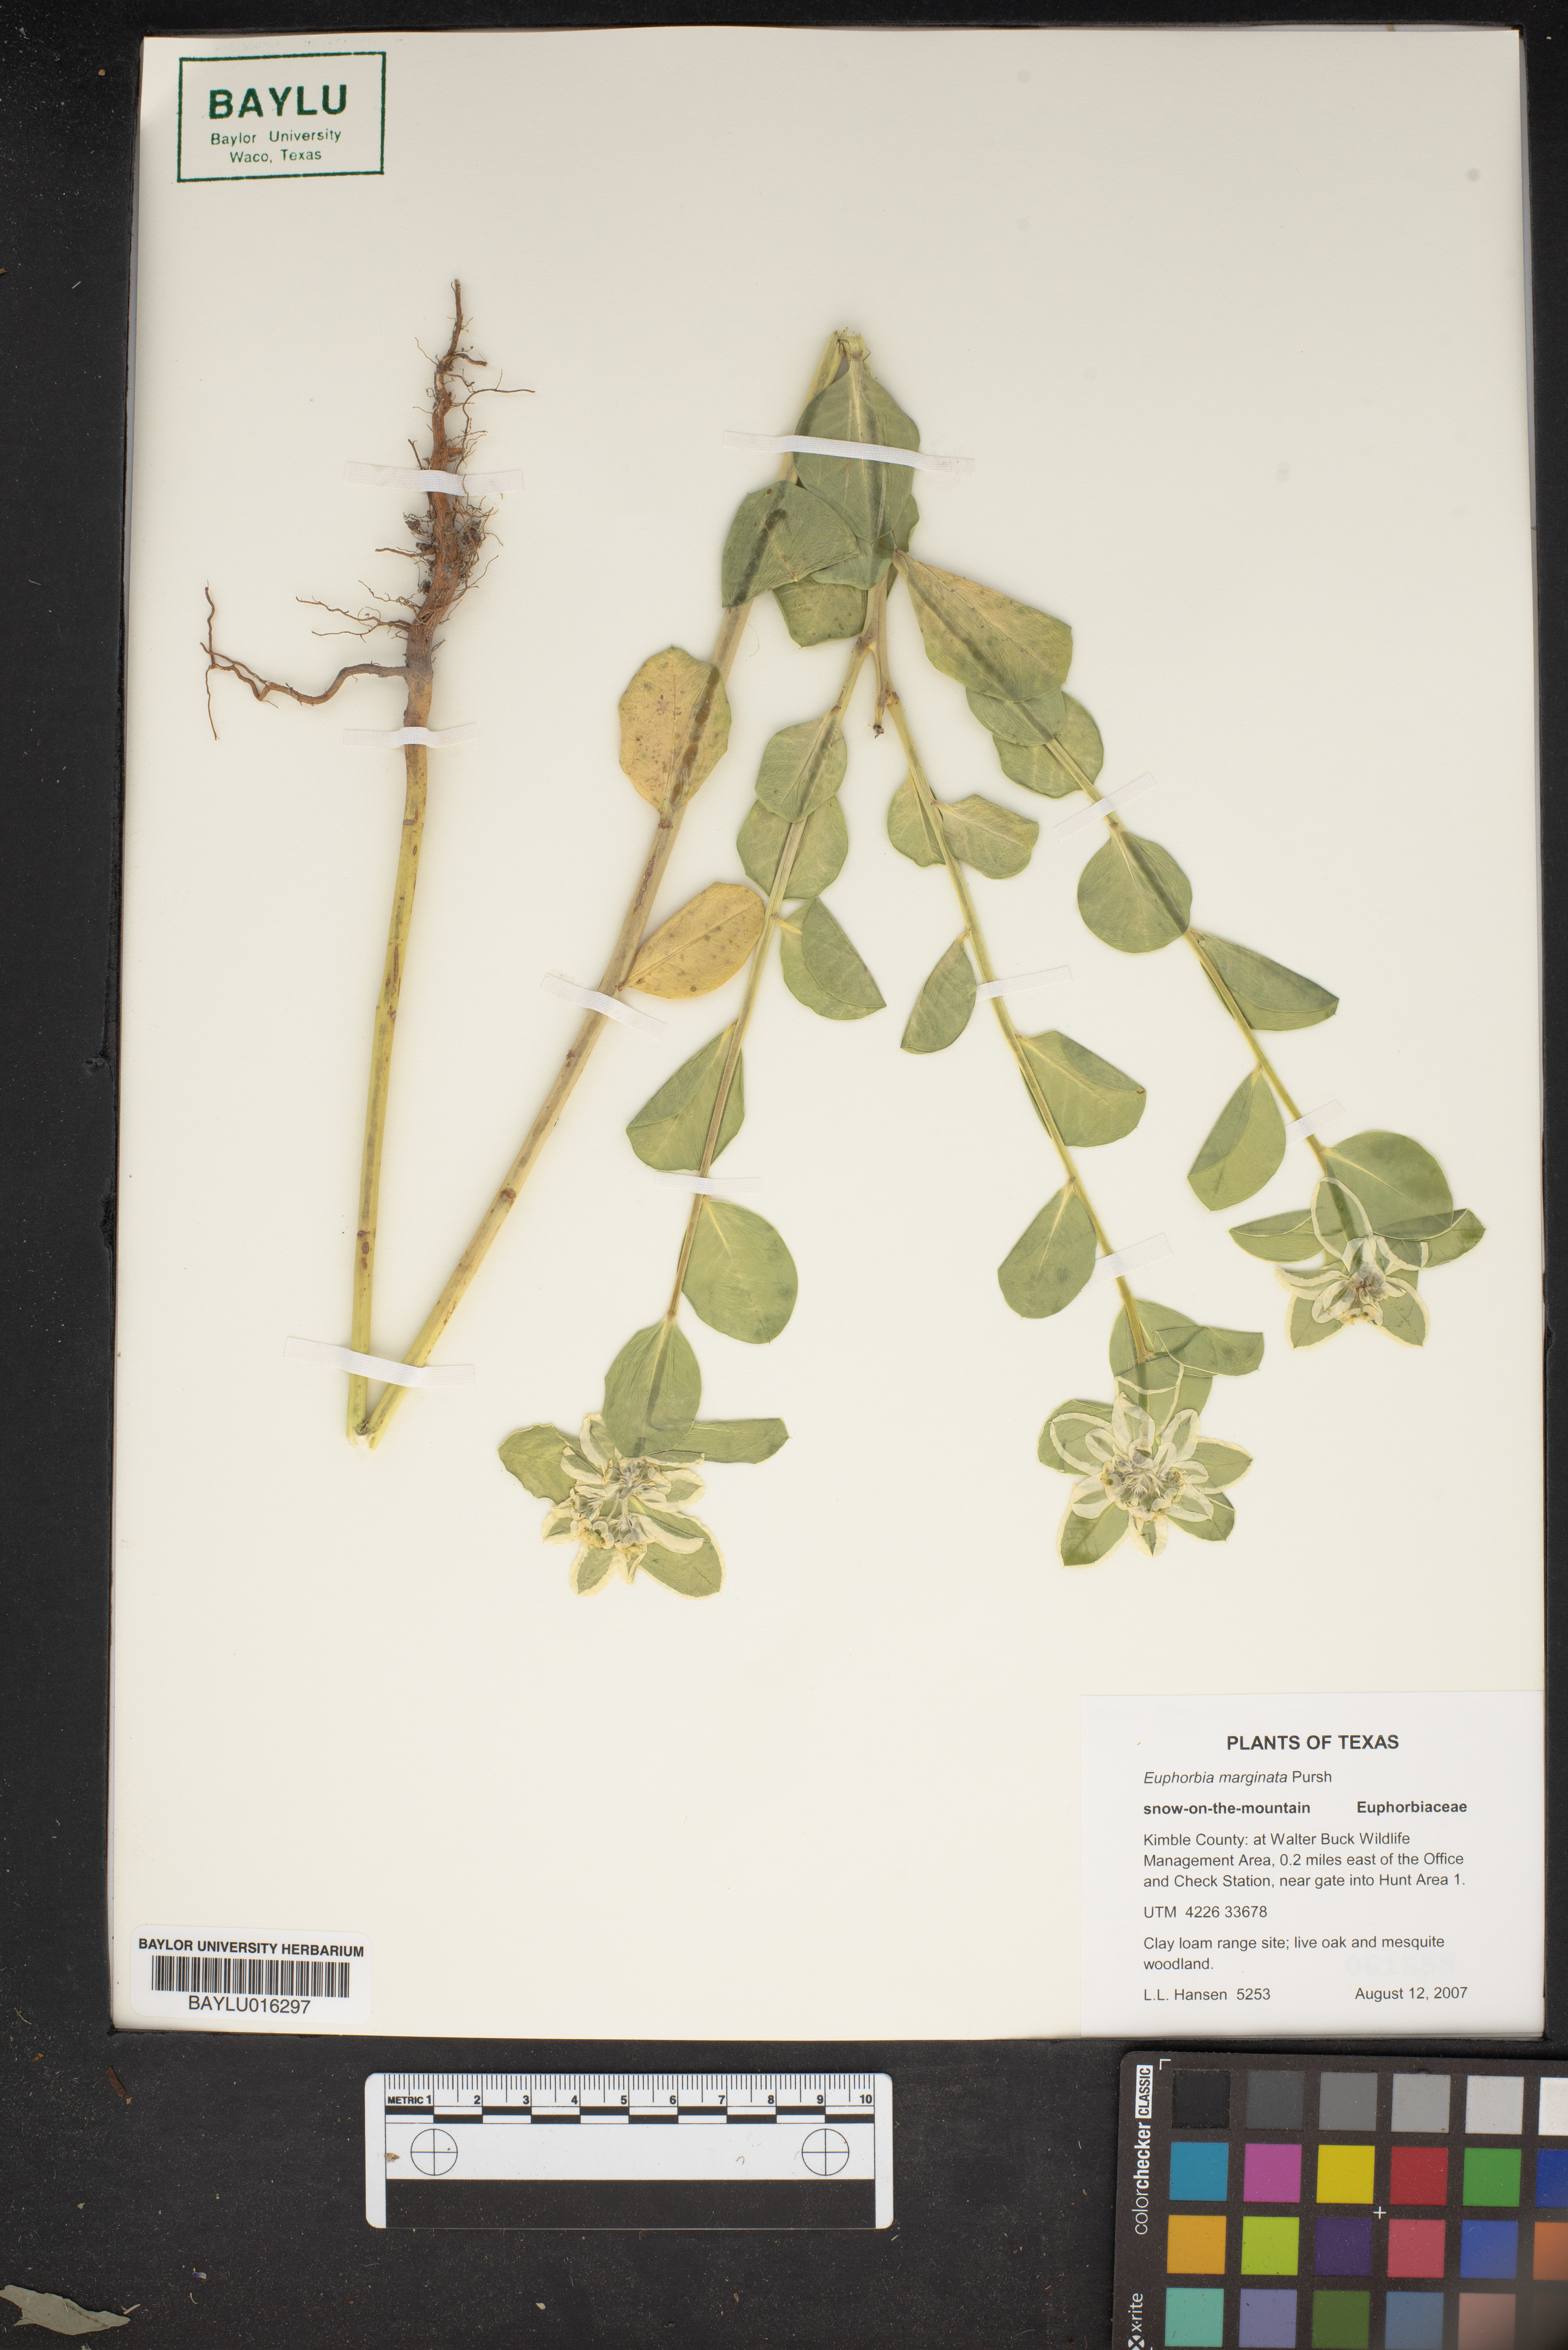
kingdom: Plantae
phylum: Tracheophyta
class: Magnoliopsida
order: Malpighiales
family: Euphorbiaceae
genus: Euphorbia
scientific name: Euphorbia marginata
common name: Ghostweed
